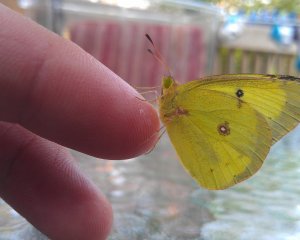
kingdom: Animalia
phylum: Arthropoda
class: Insecta
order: Lepidoptera
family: Pieridae
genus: Colias
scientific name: Colias philodice
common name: Clouded Sulphur
